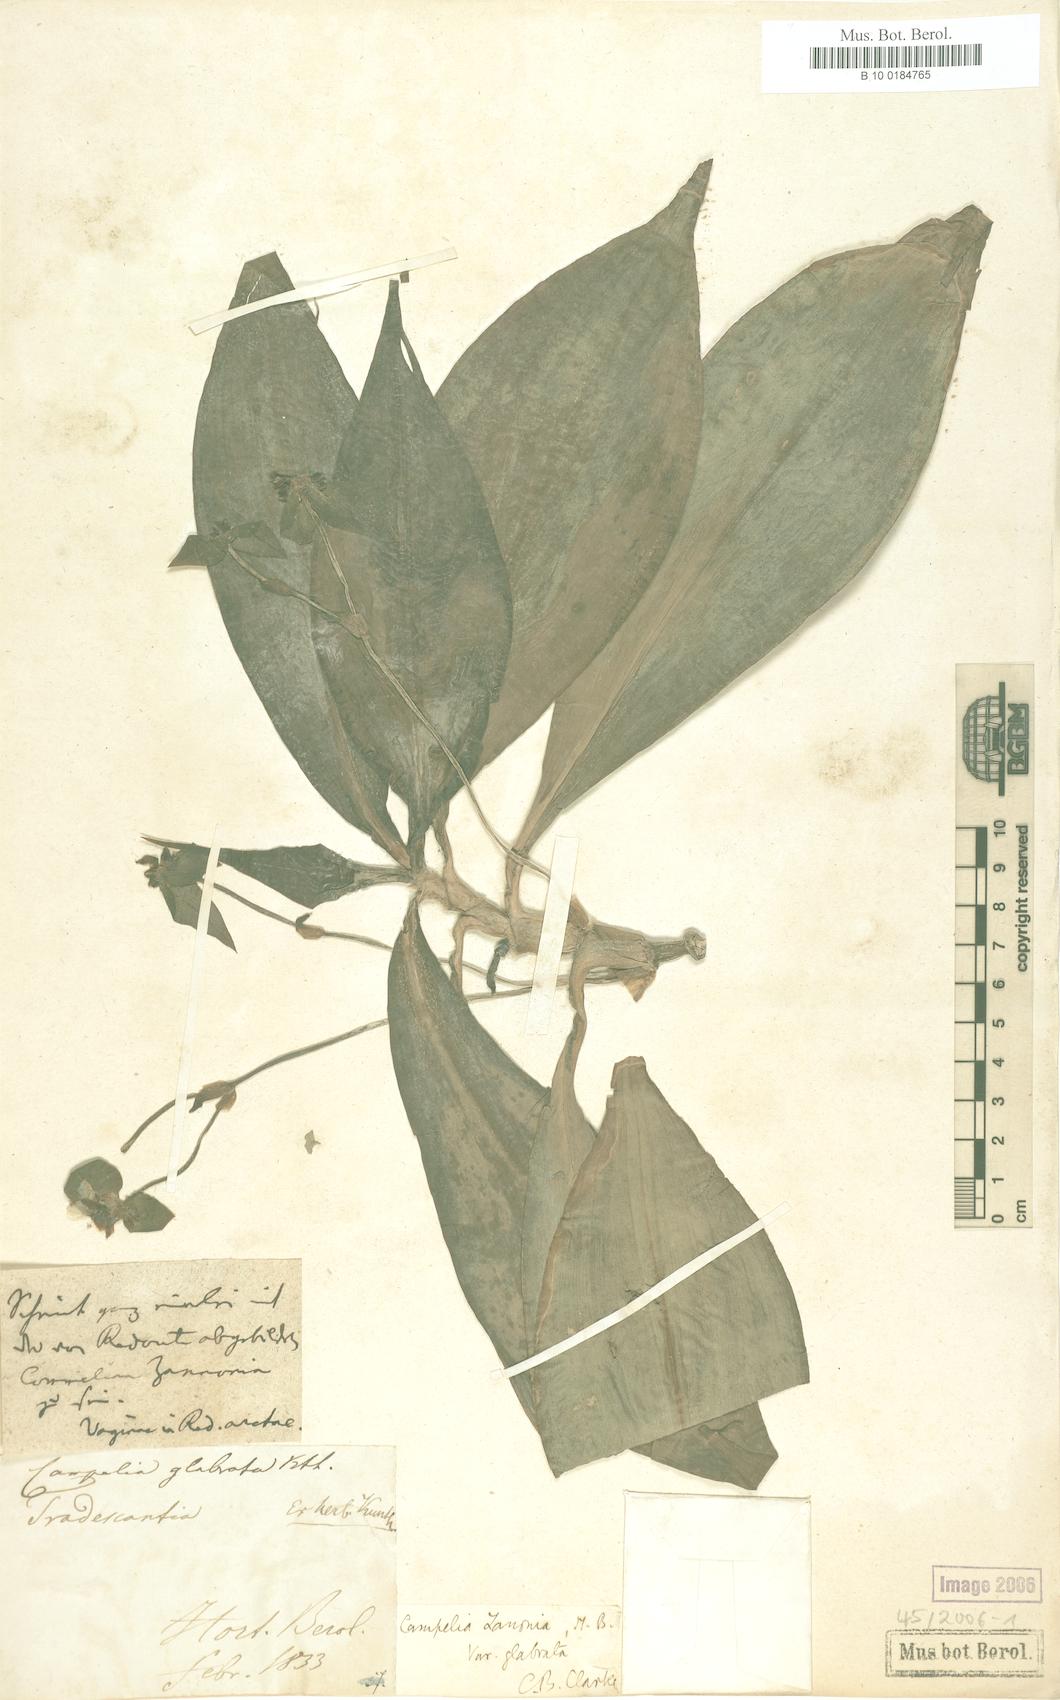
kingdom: Plantae
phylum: Tracheophyta
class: Liliopsida
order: Commelinales
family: Commelinaceae
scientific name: Commelinaceae
